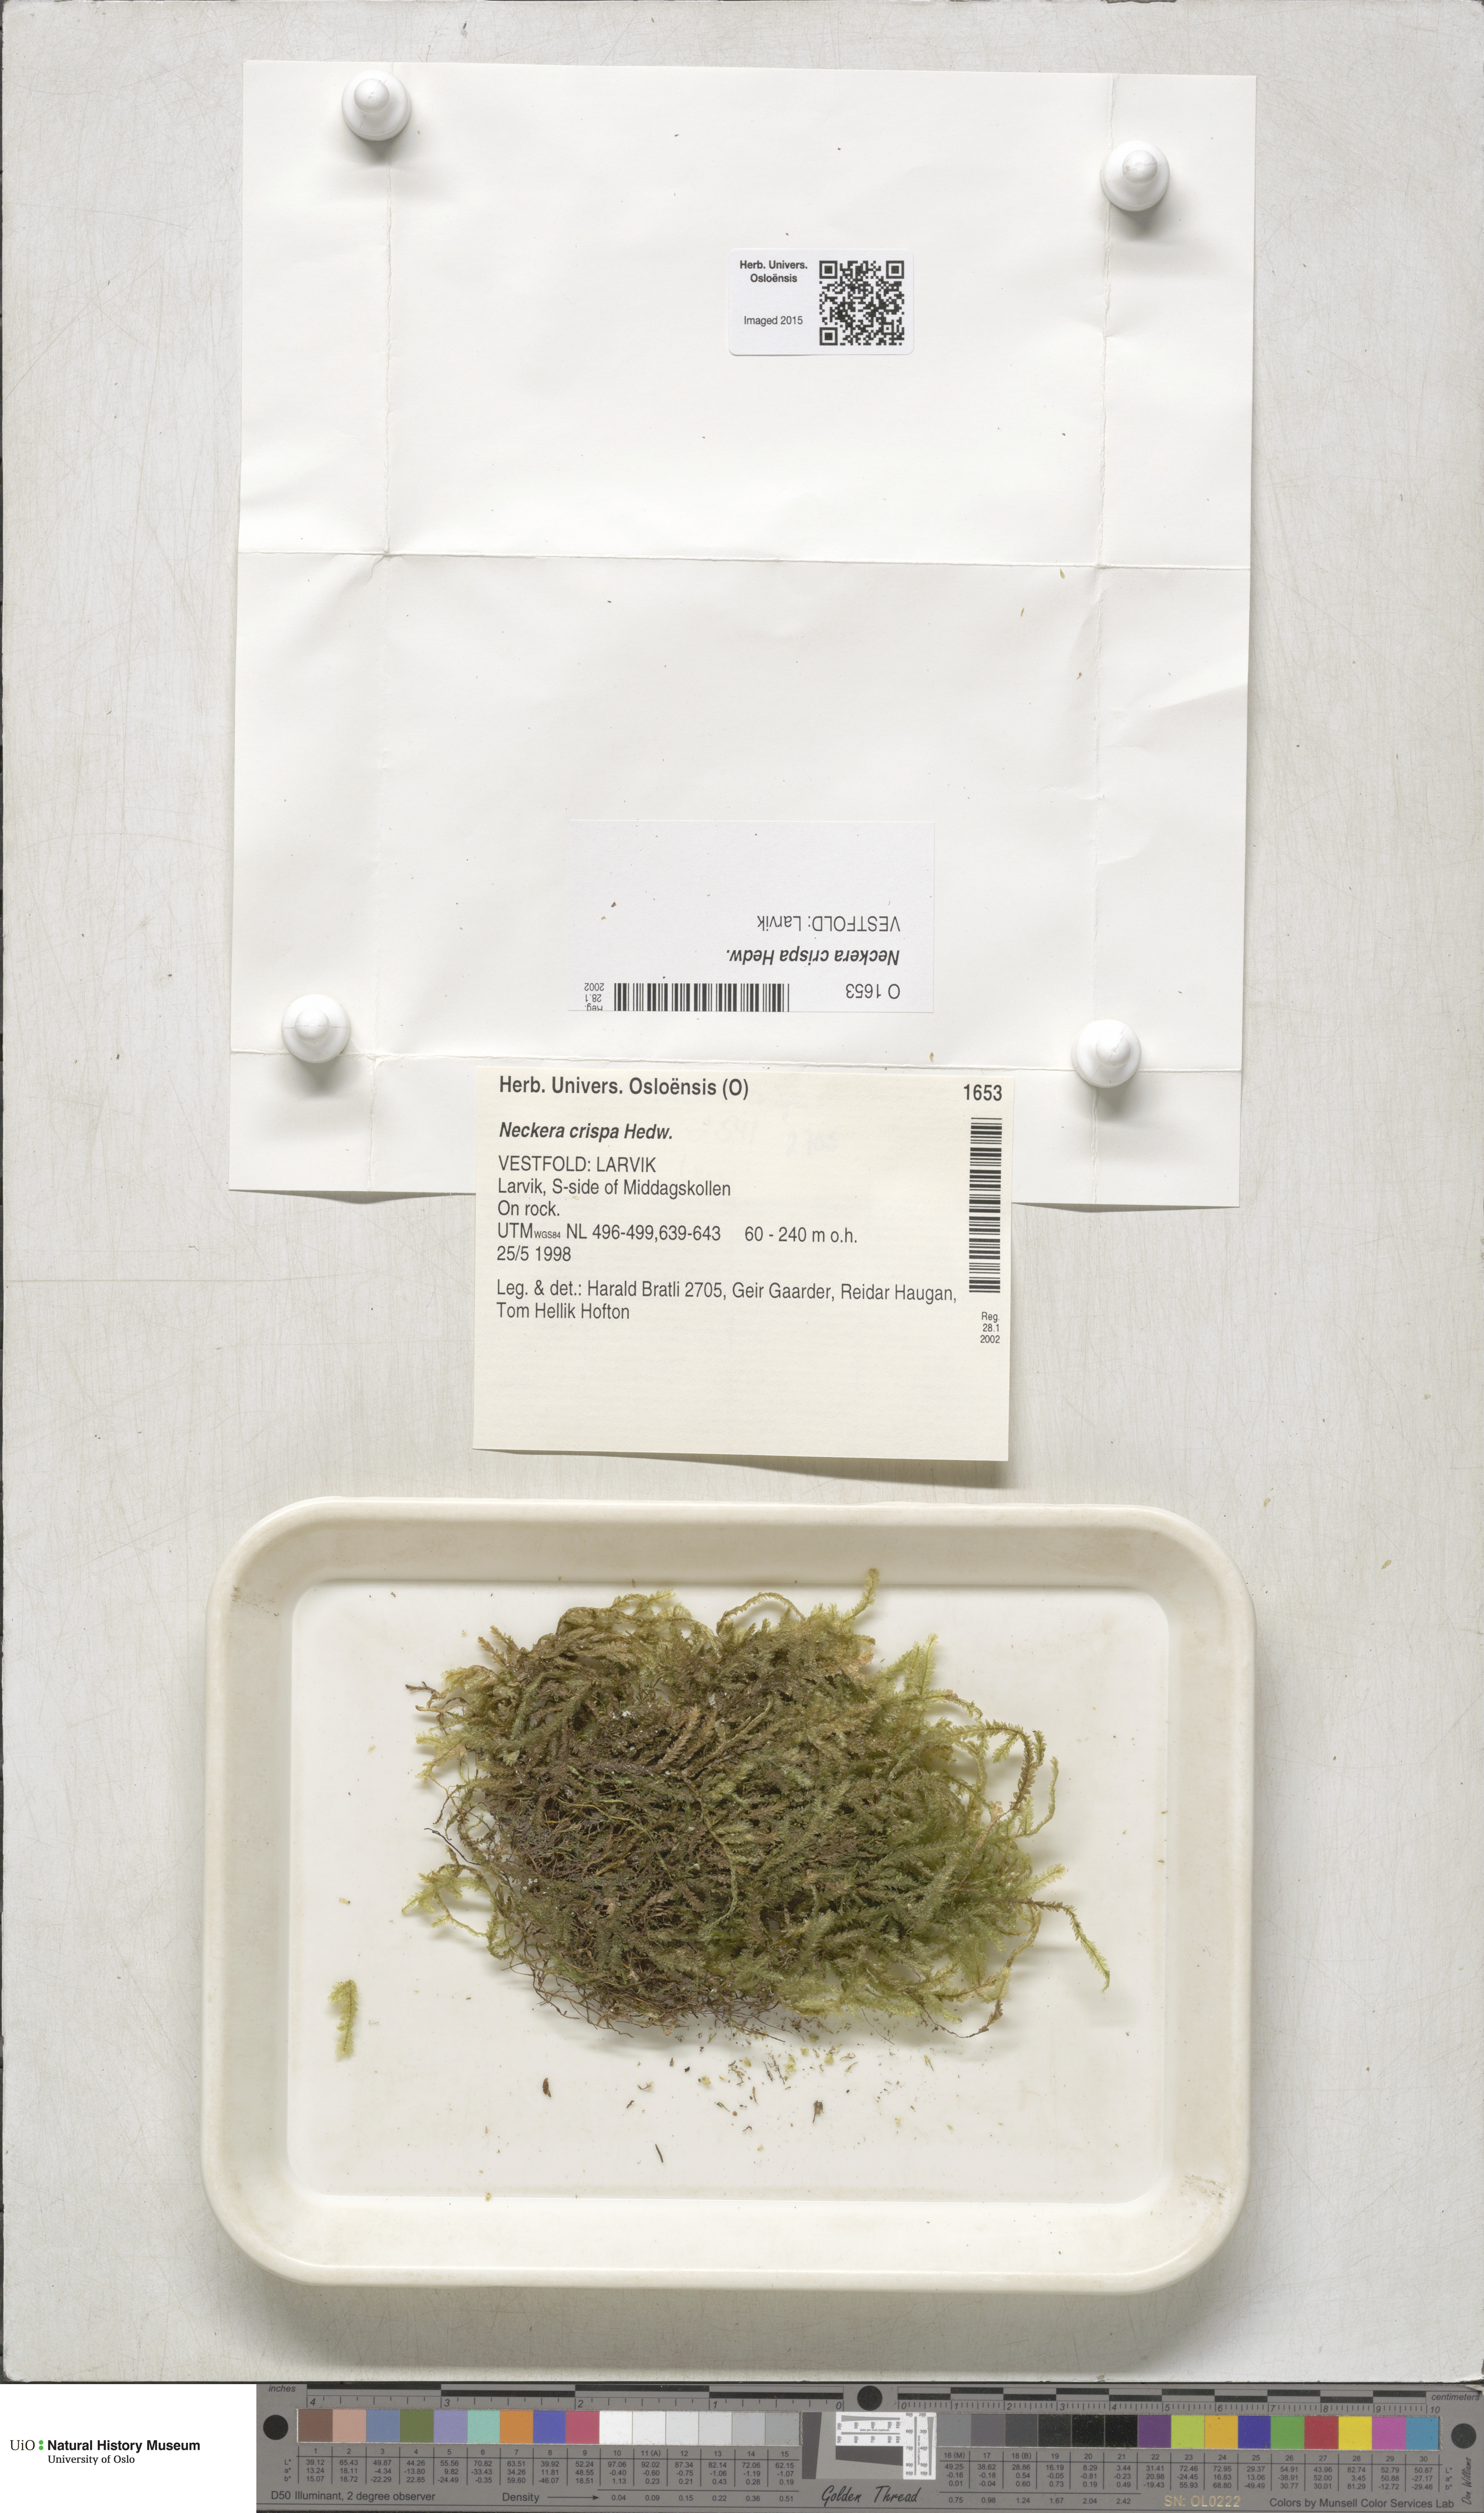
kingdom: Plantae
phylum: Bryophyta
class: Bryopsida
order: Hypnales
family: Neckeraceae
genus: Exsertotheca
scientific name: Exsertotheca crispa
